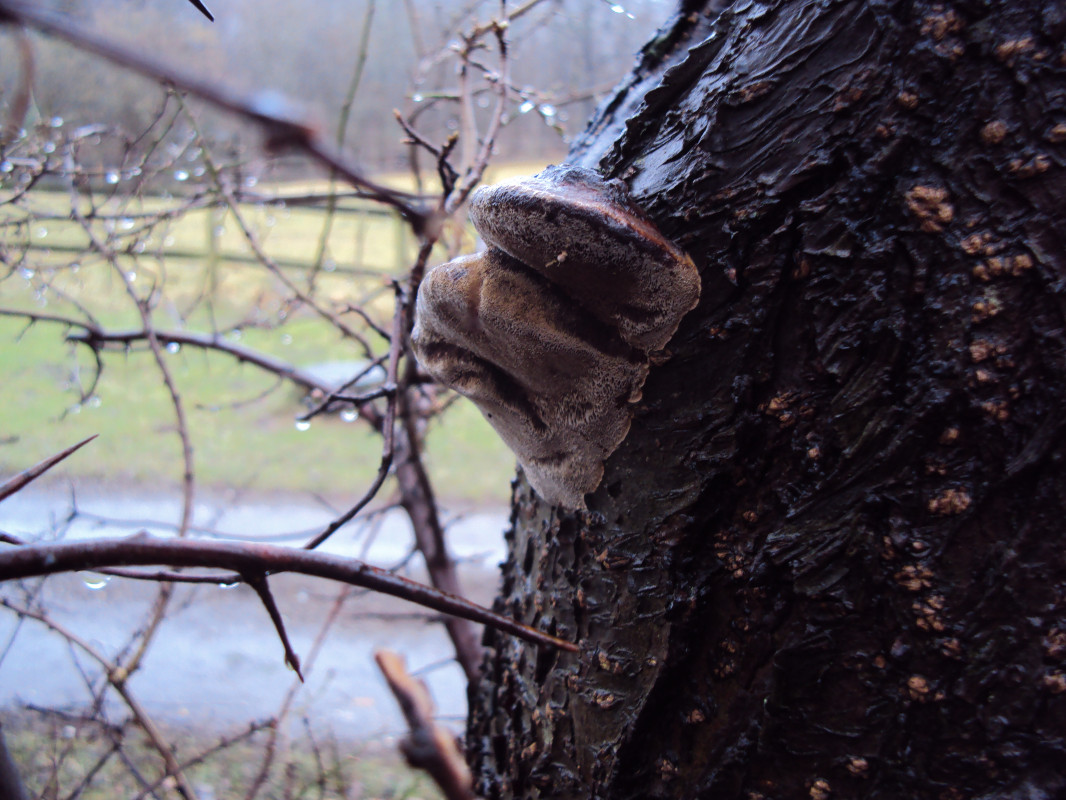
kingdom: Fungi
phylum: Basidiomycota
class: Agaricomycetes
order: Hymenochaetales
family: Hymenochaetaceae
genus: Phellinus
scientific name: Phellinus pomaceus
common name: blomme-ildporesvamp
